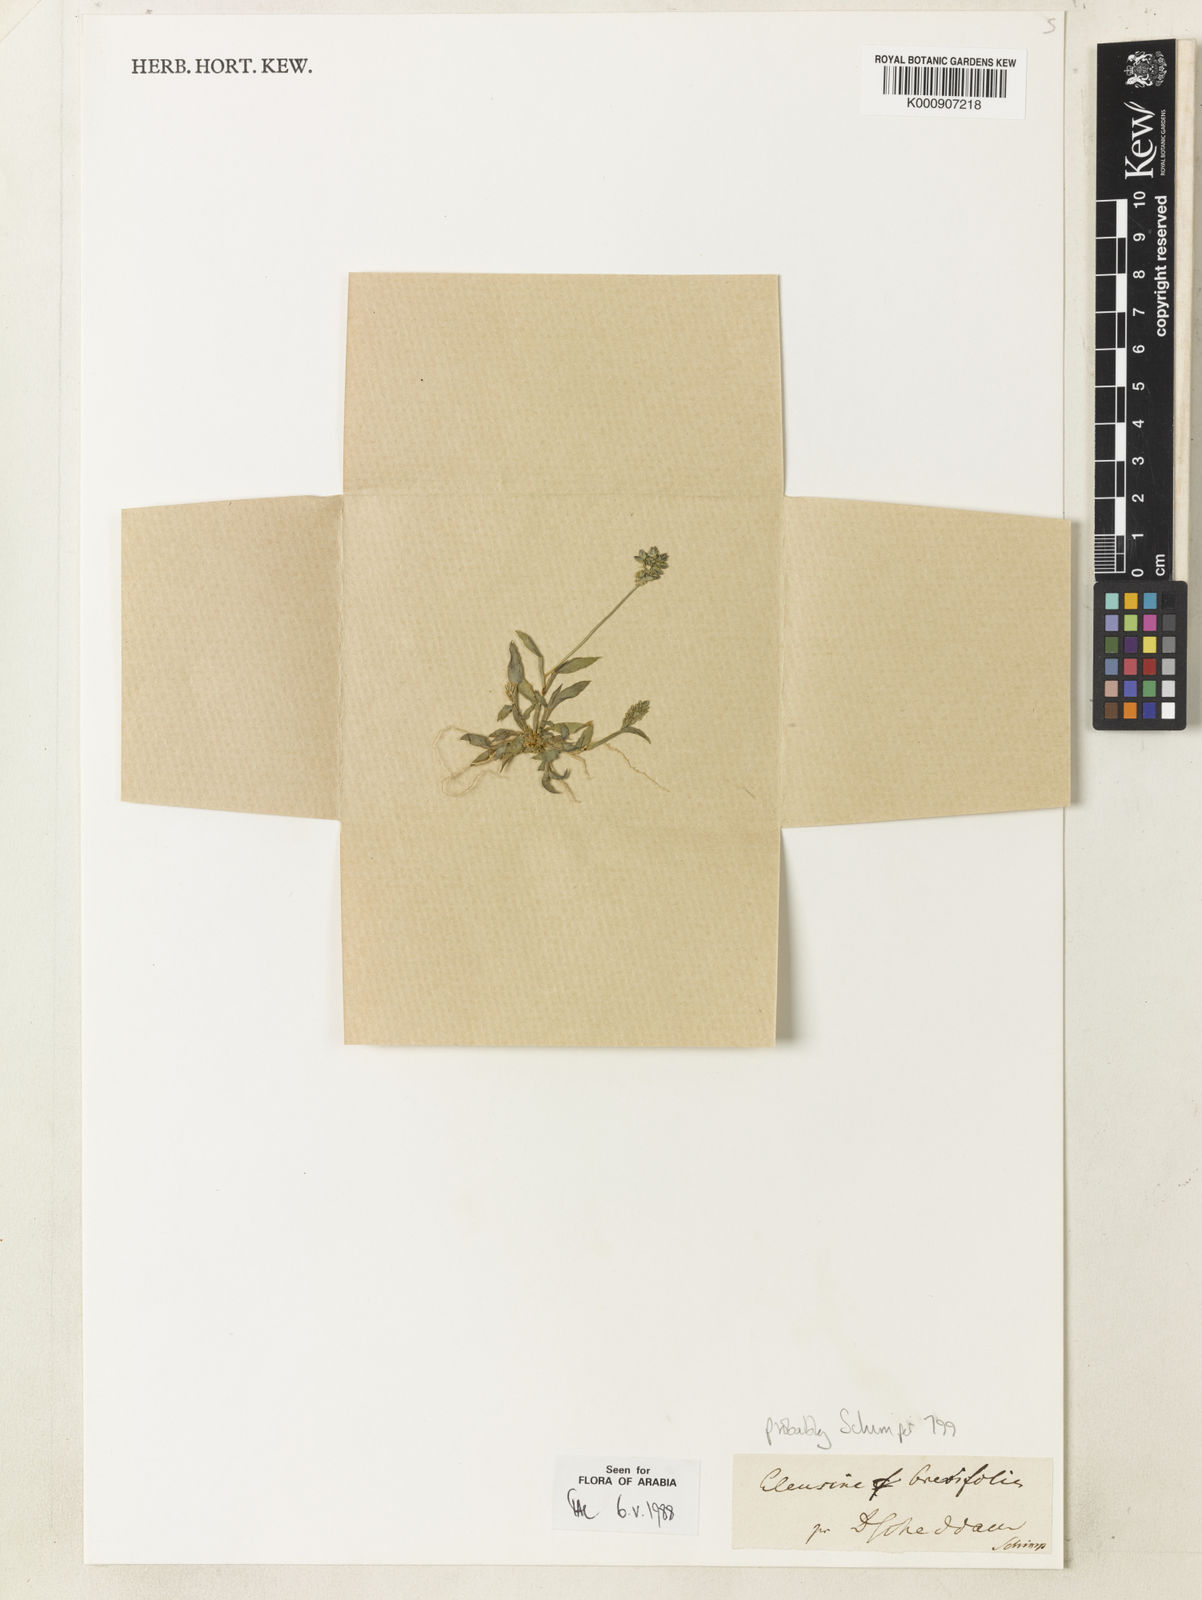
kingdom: Plantae
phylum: Tracheophyta
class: Liliopsida
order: Poales
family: Poaceae
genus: Coelachyrum
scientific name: Coelachyrum brevifolium
